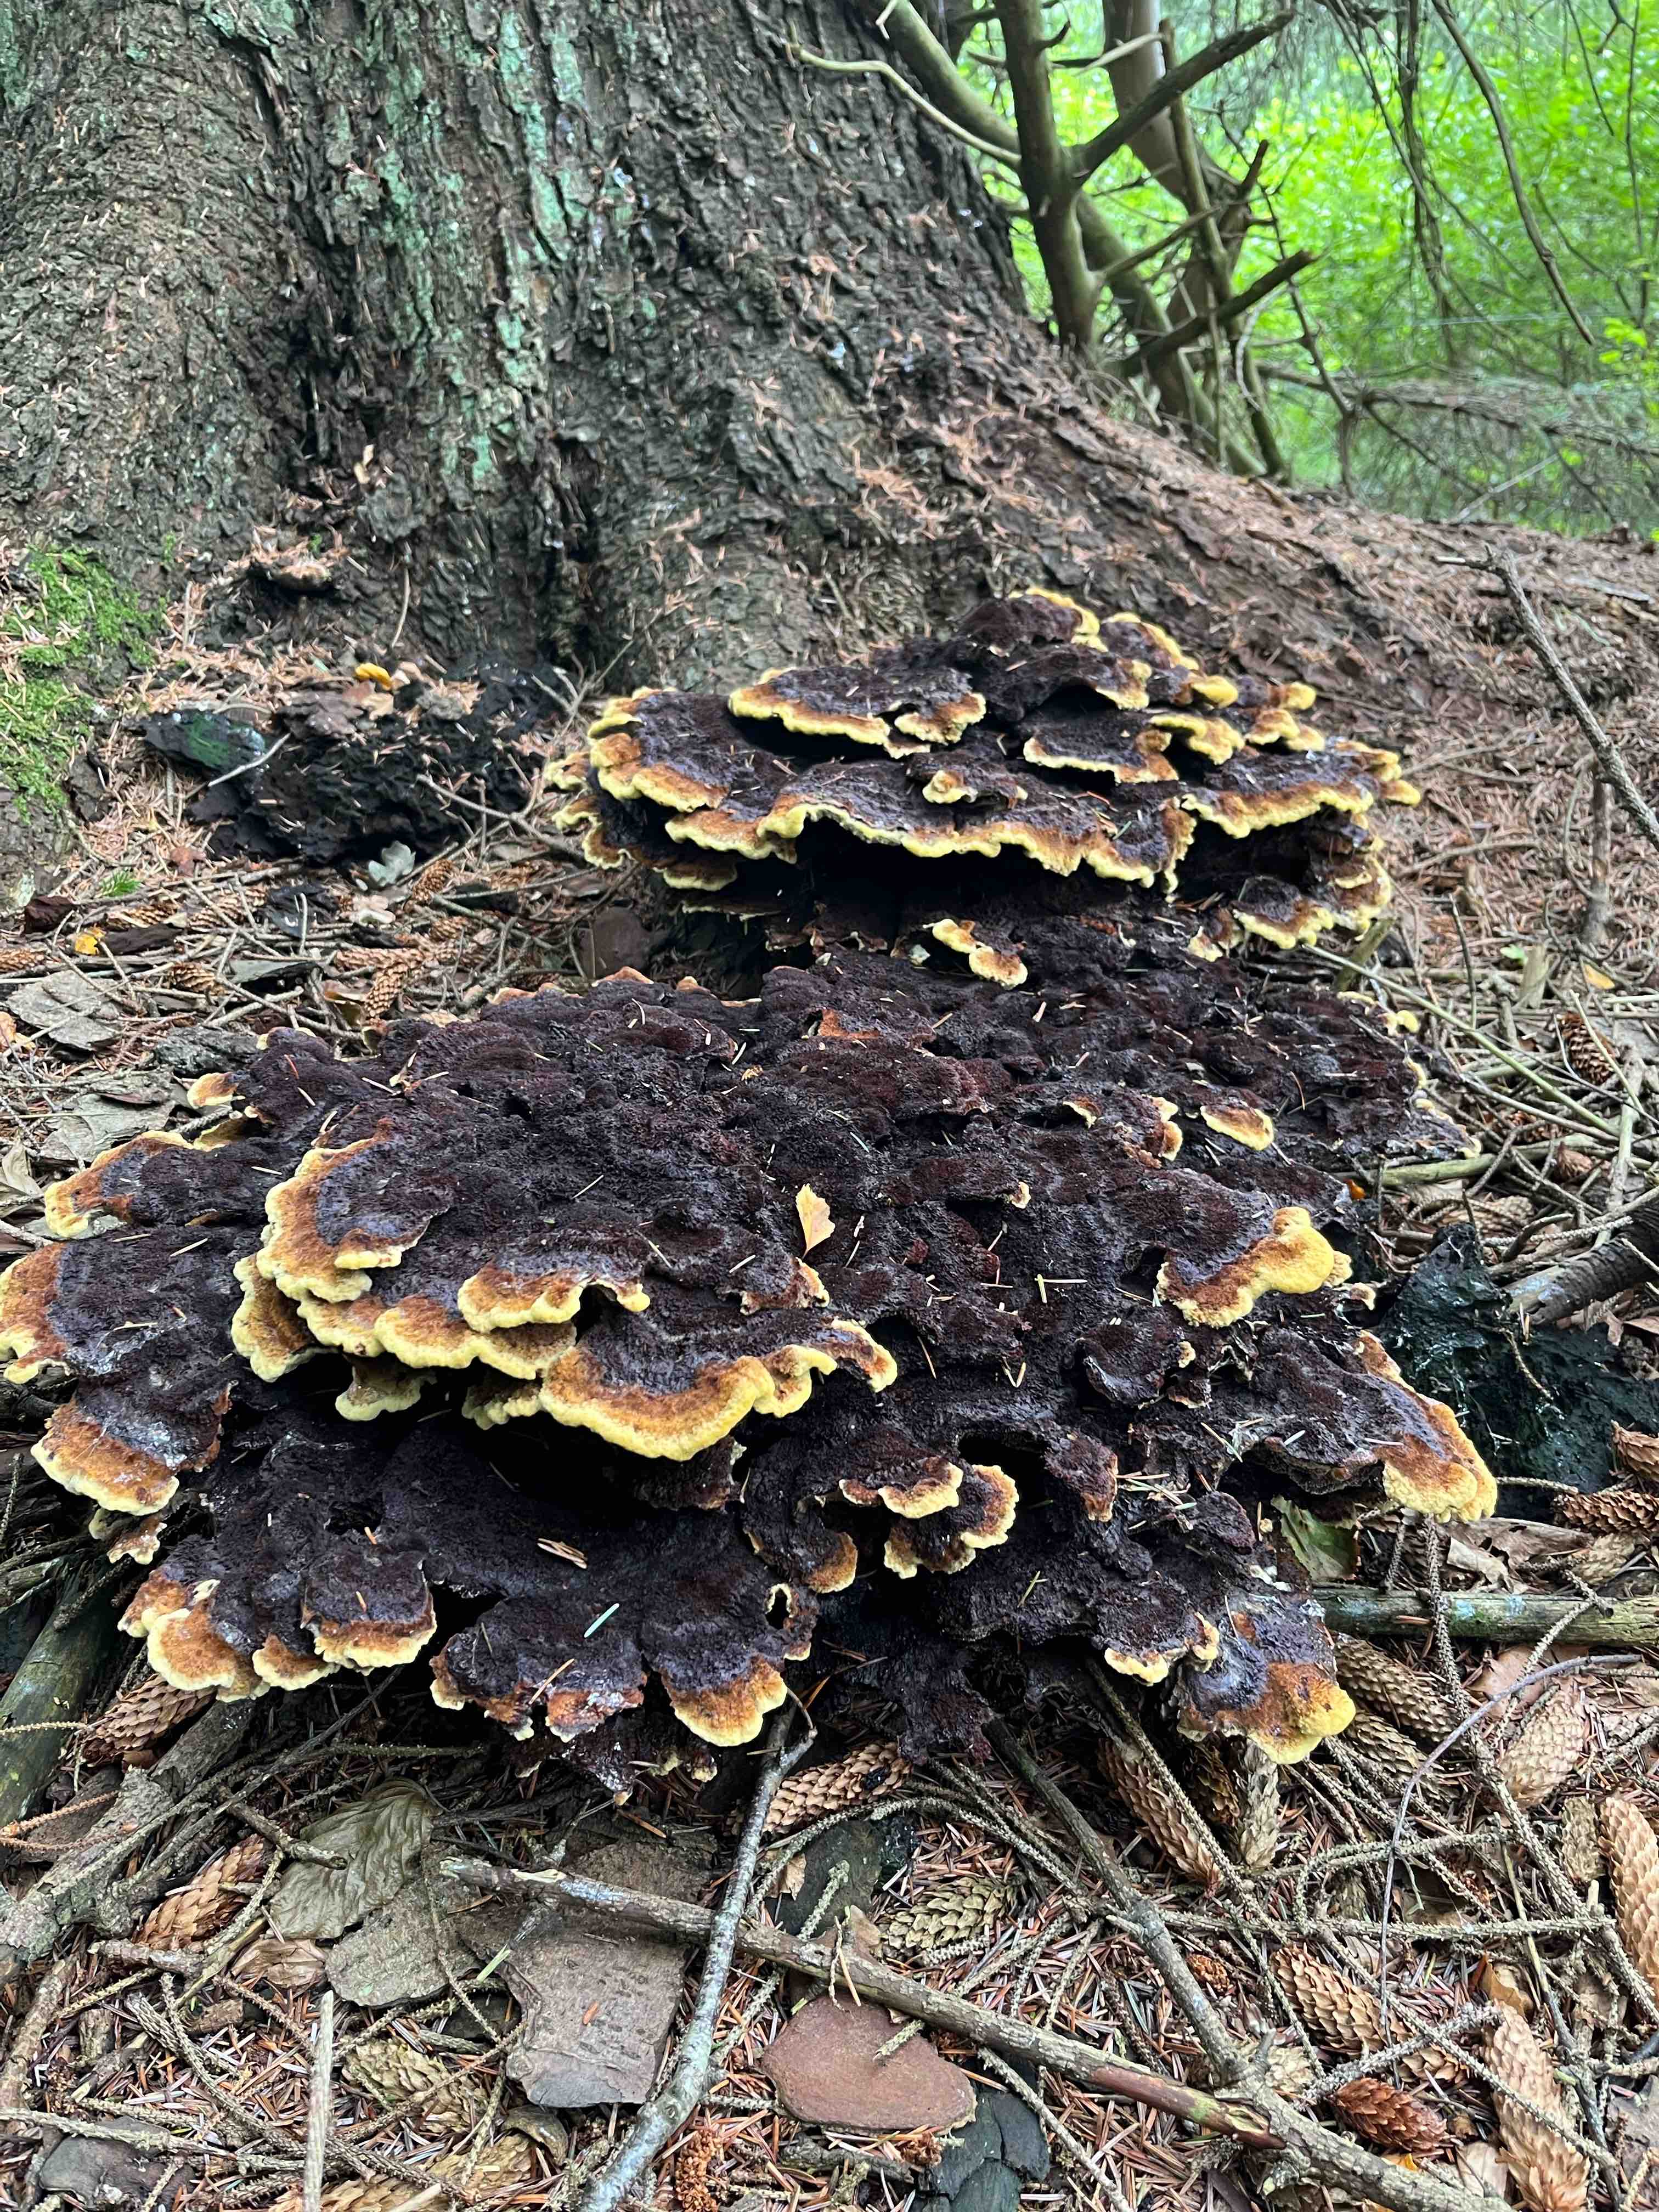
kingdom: Fungi
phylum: Basidiomycota
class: Agaricomycetes
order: Polyporales
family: Laetiporaceae
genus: Phaeolus
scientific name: Phaeolus schweinitzii
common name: brunporesvamp
